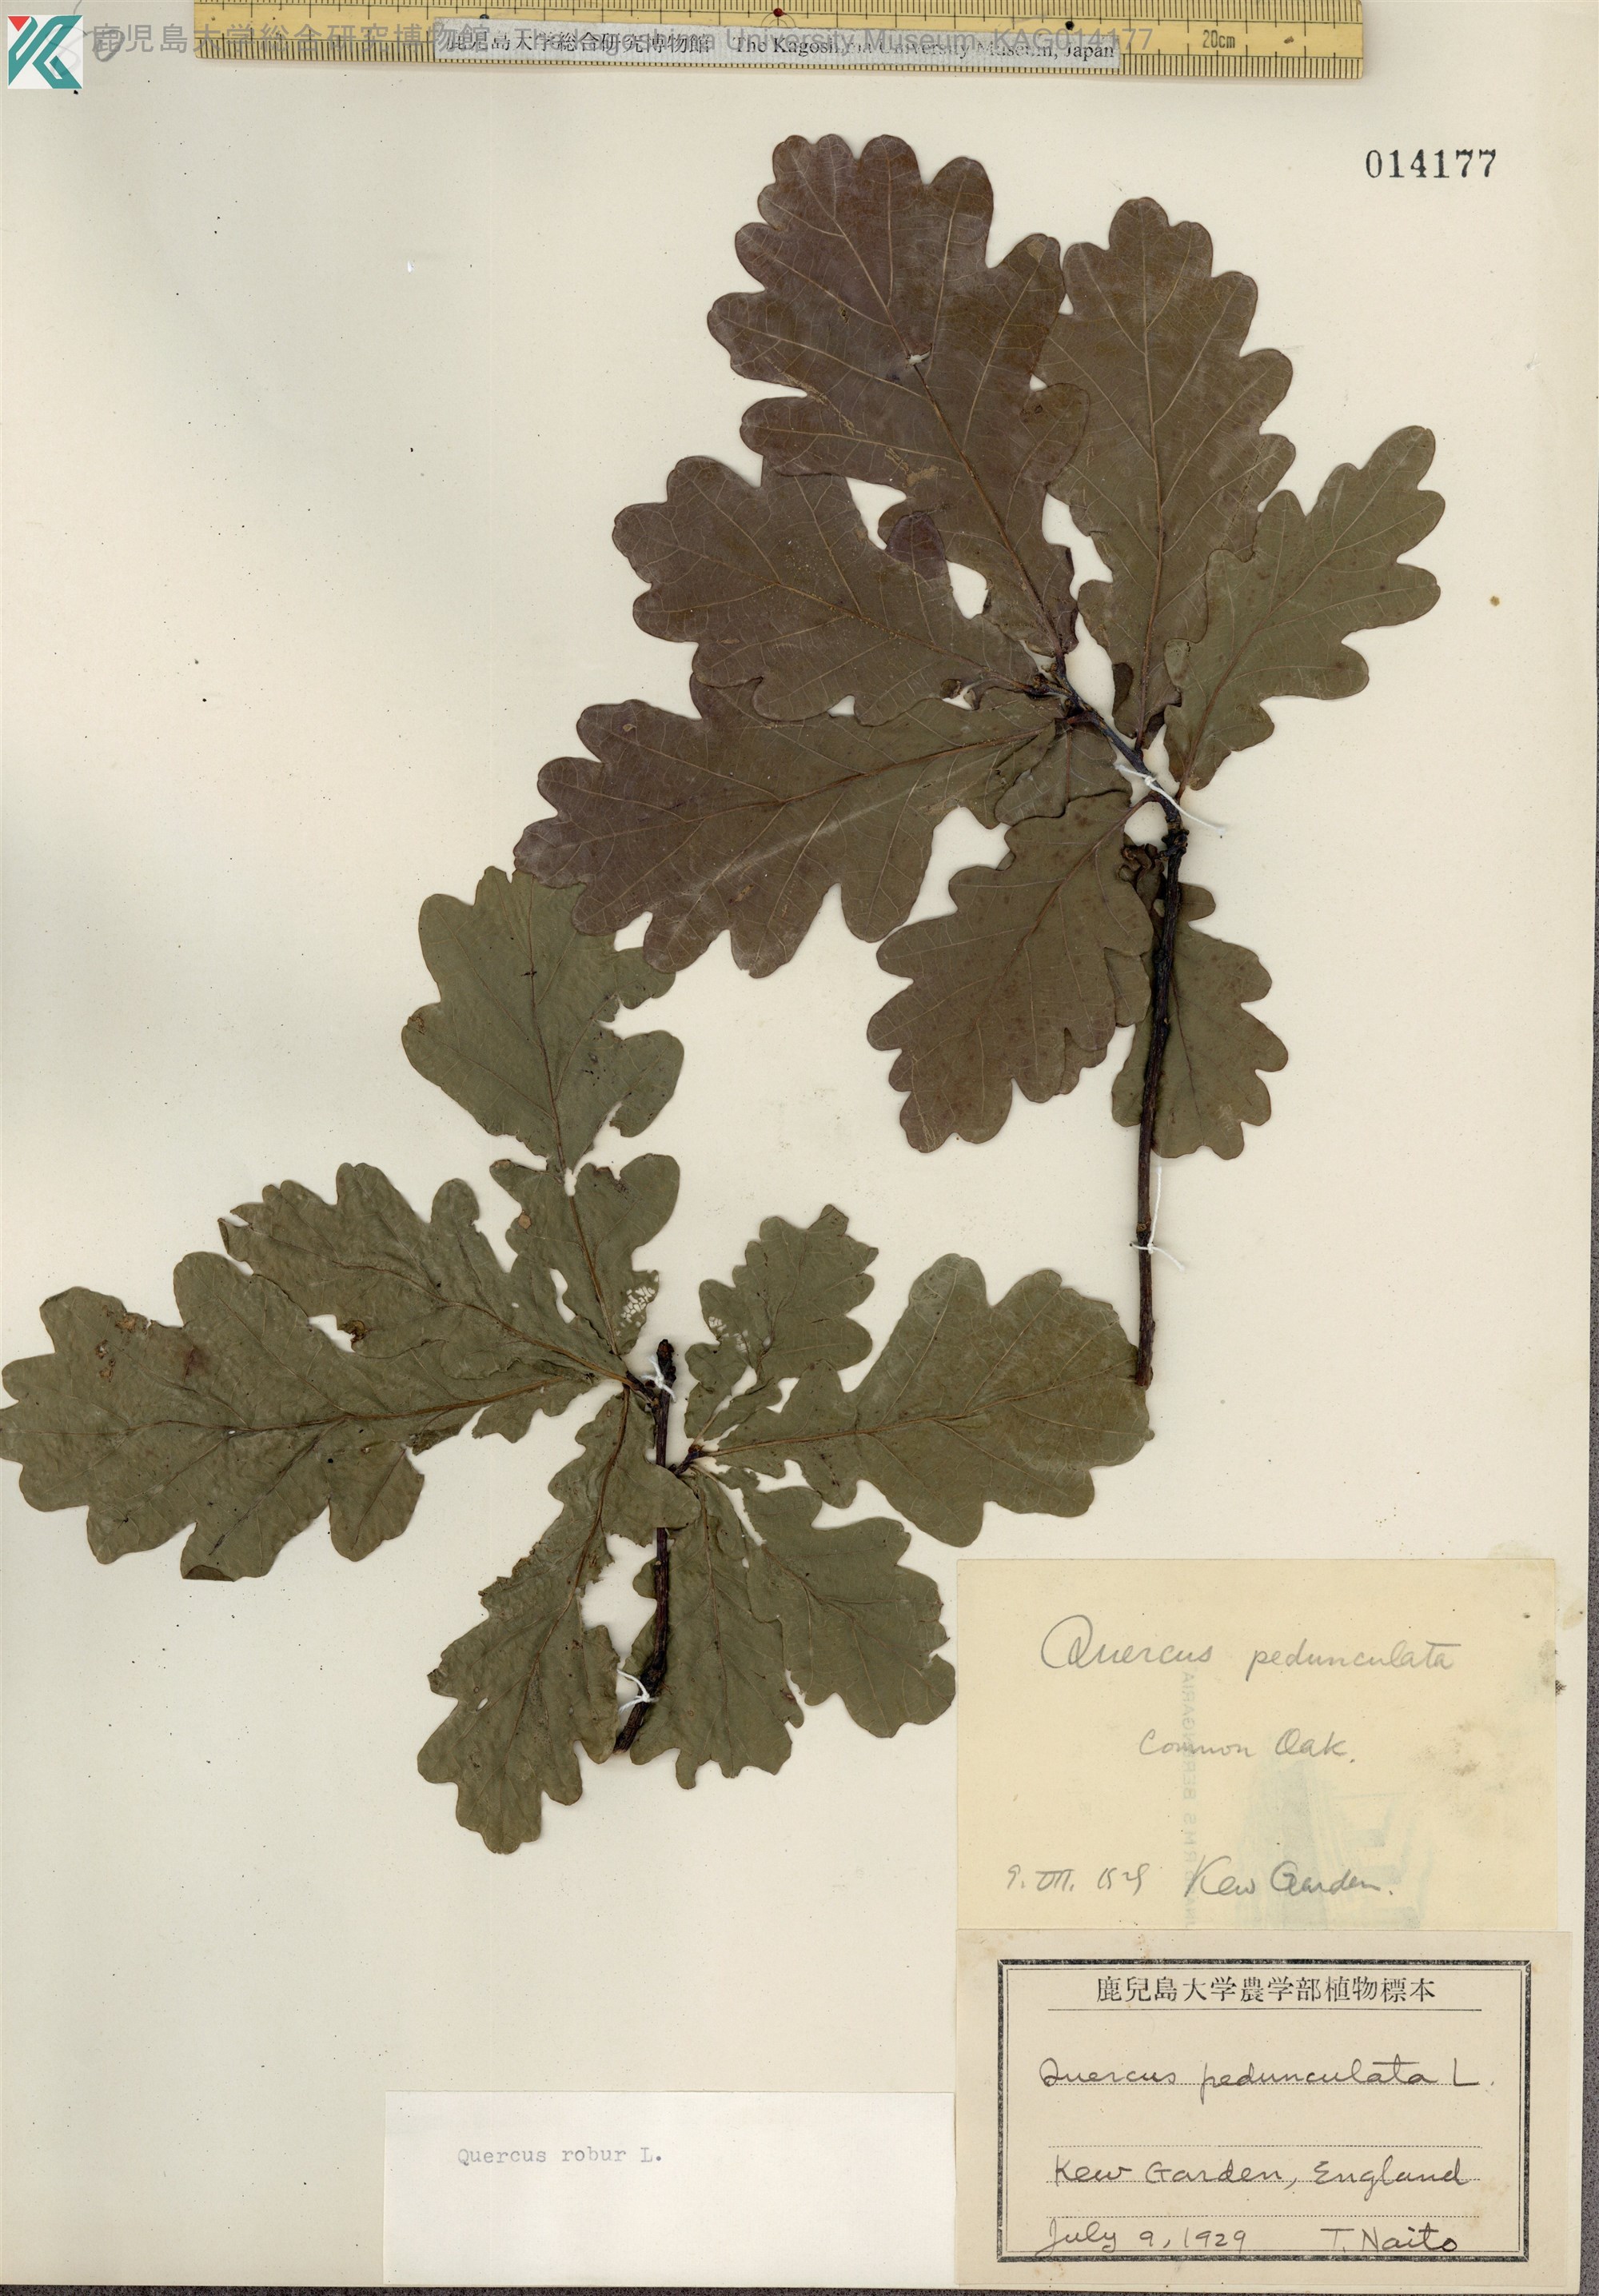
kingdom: Plantae
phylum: Tracheophyta
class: Magnoliopsida
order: Fagales
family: Fagaceae
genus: Quercus
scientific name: Quercus robur
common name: Pedunculate oak
